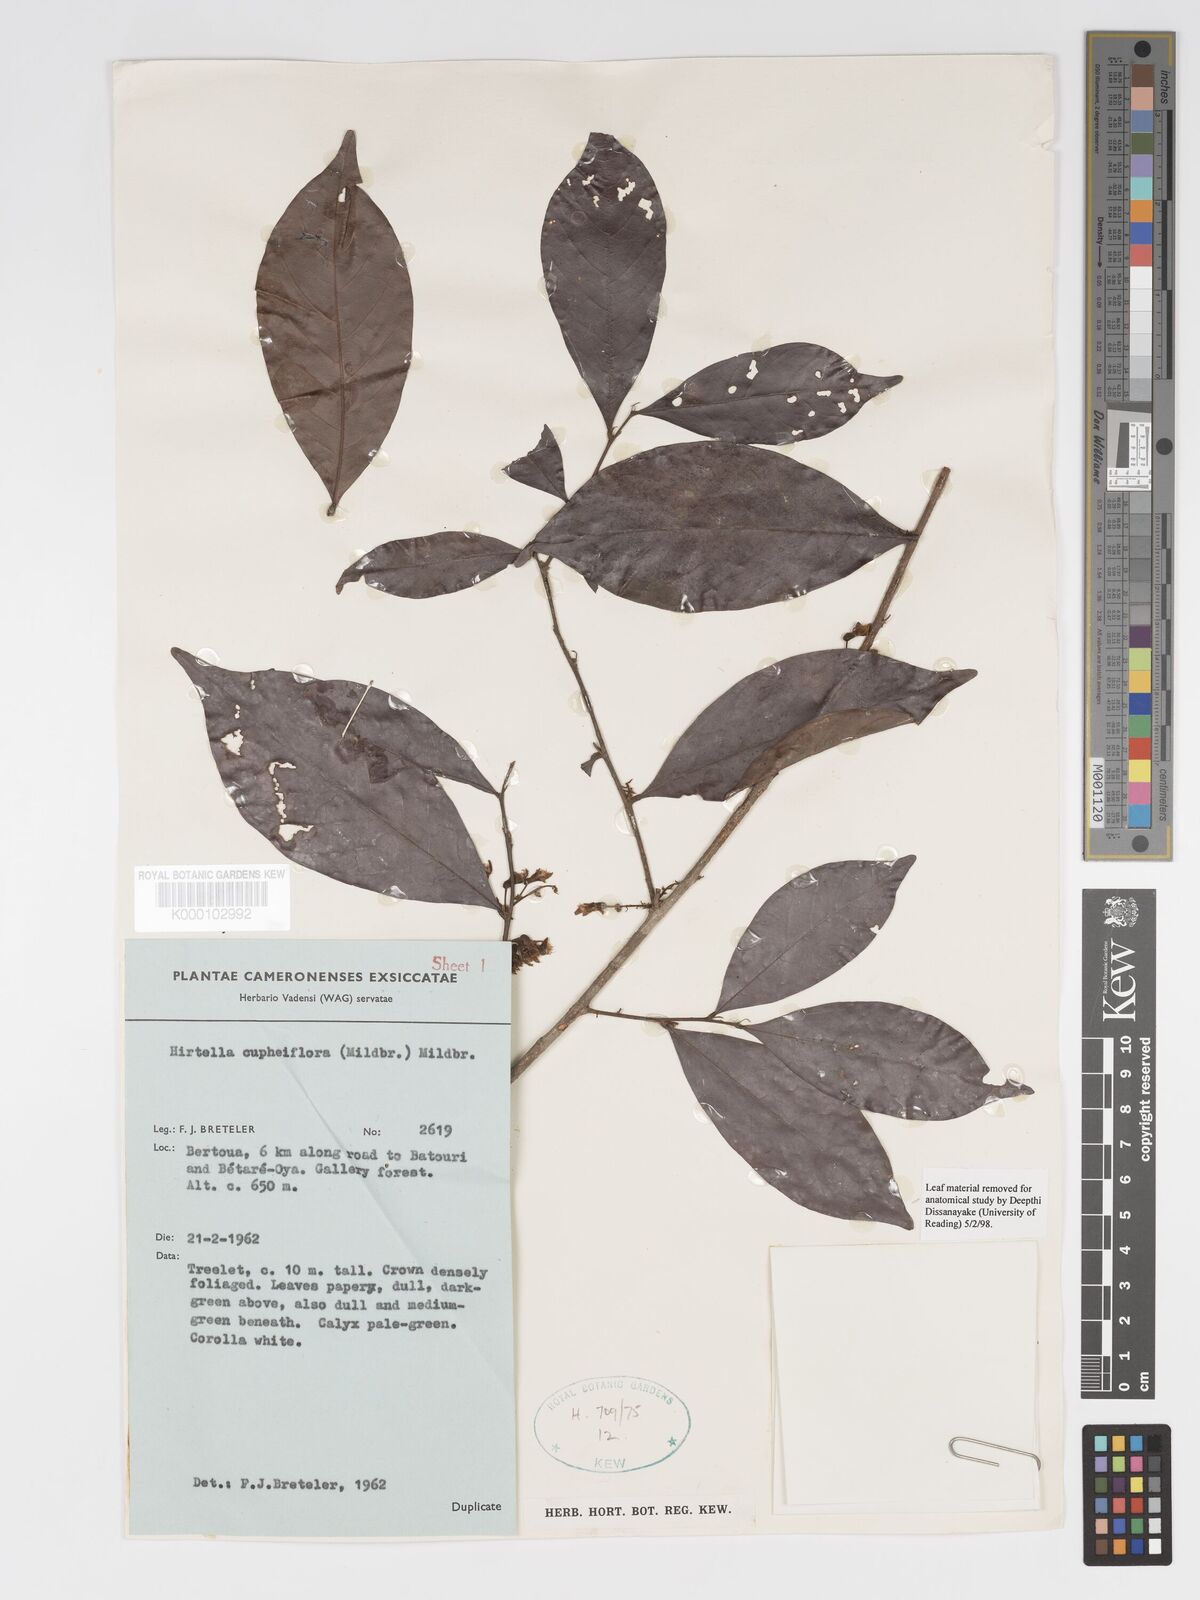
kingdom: Plantae
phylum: Tracheophyta
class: Magnoliopsida
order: Malpighiales
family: Chrysobalanaceae
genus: Magnistipula
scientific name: Magnistipula cupheiflora
